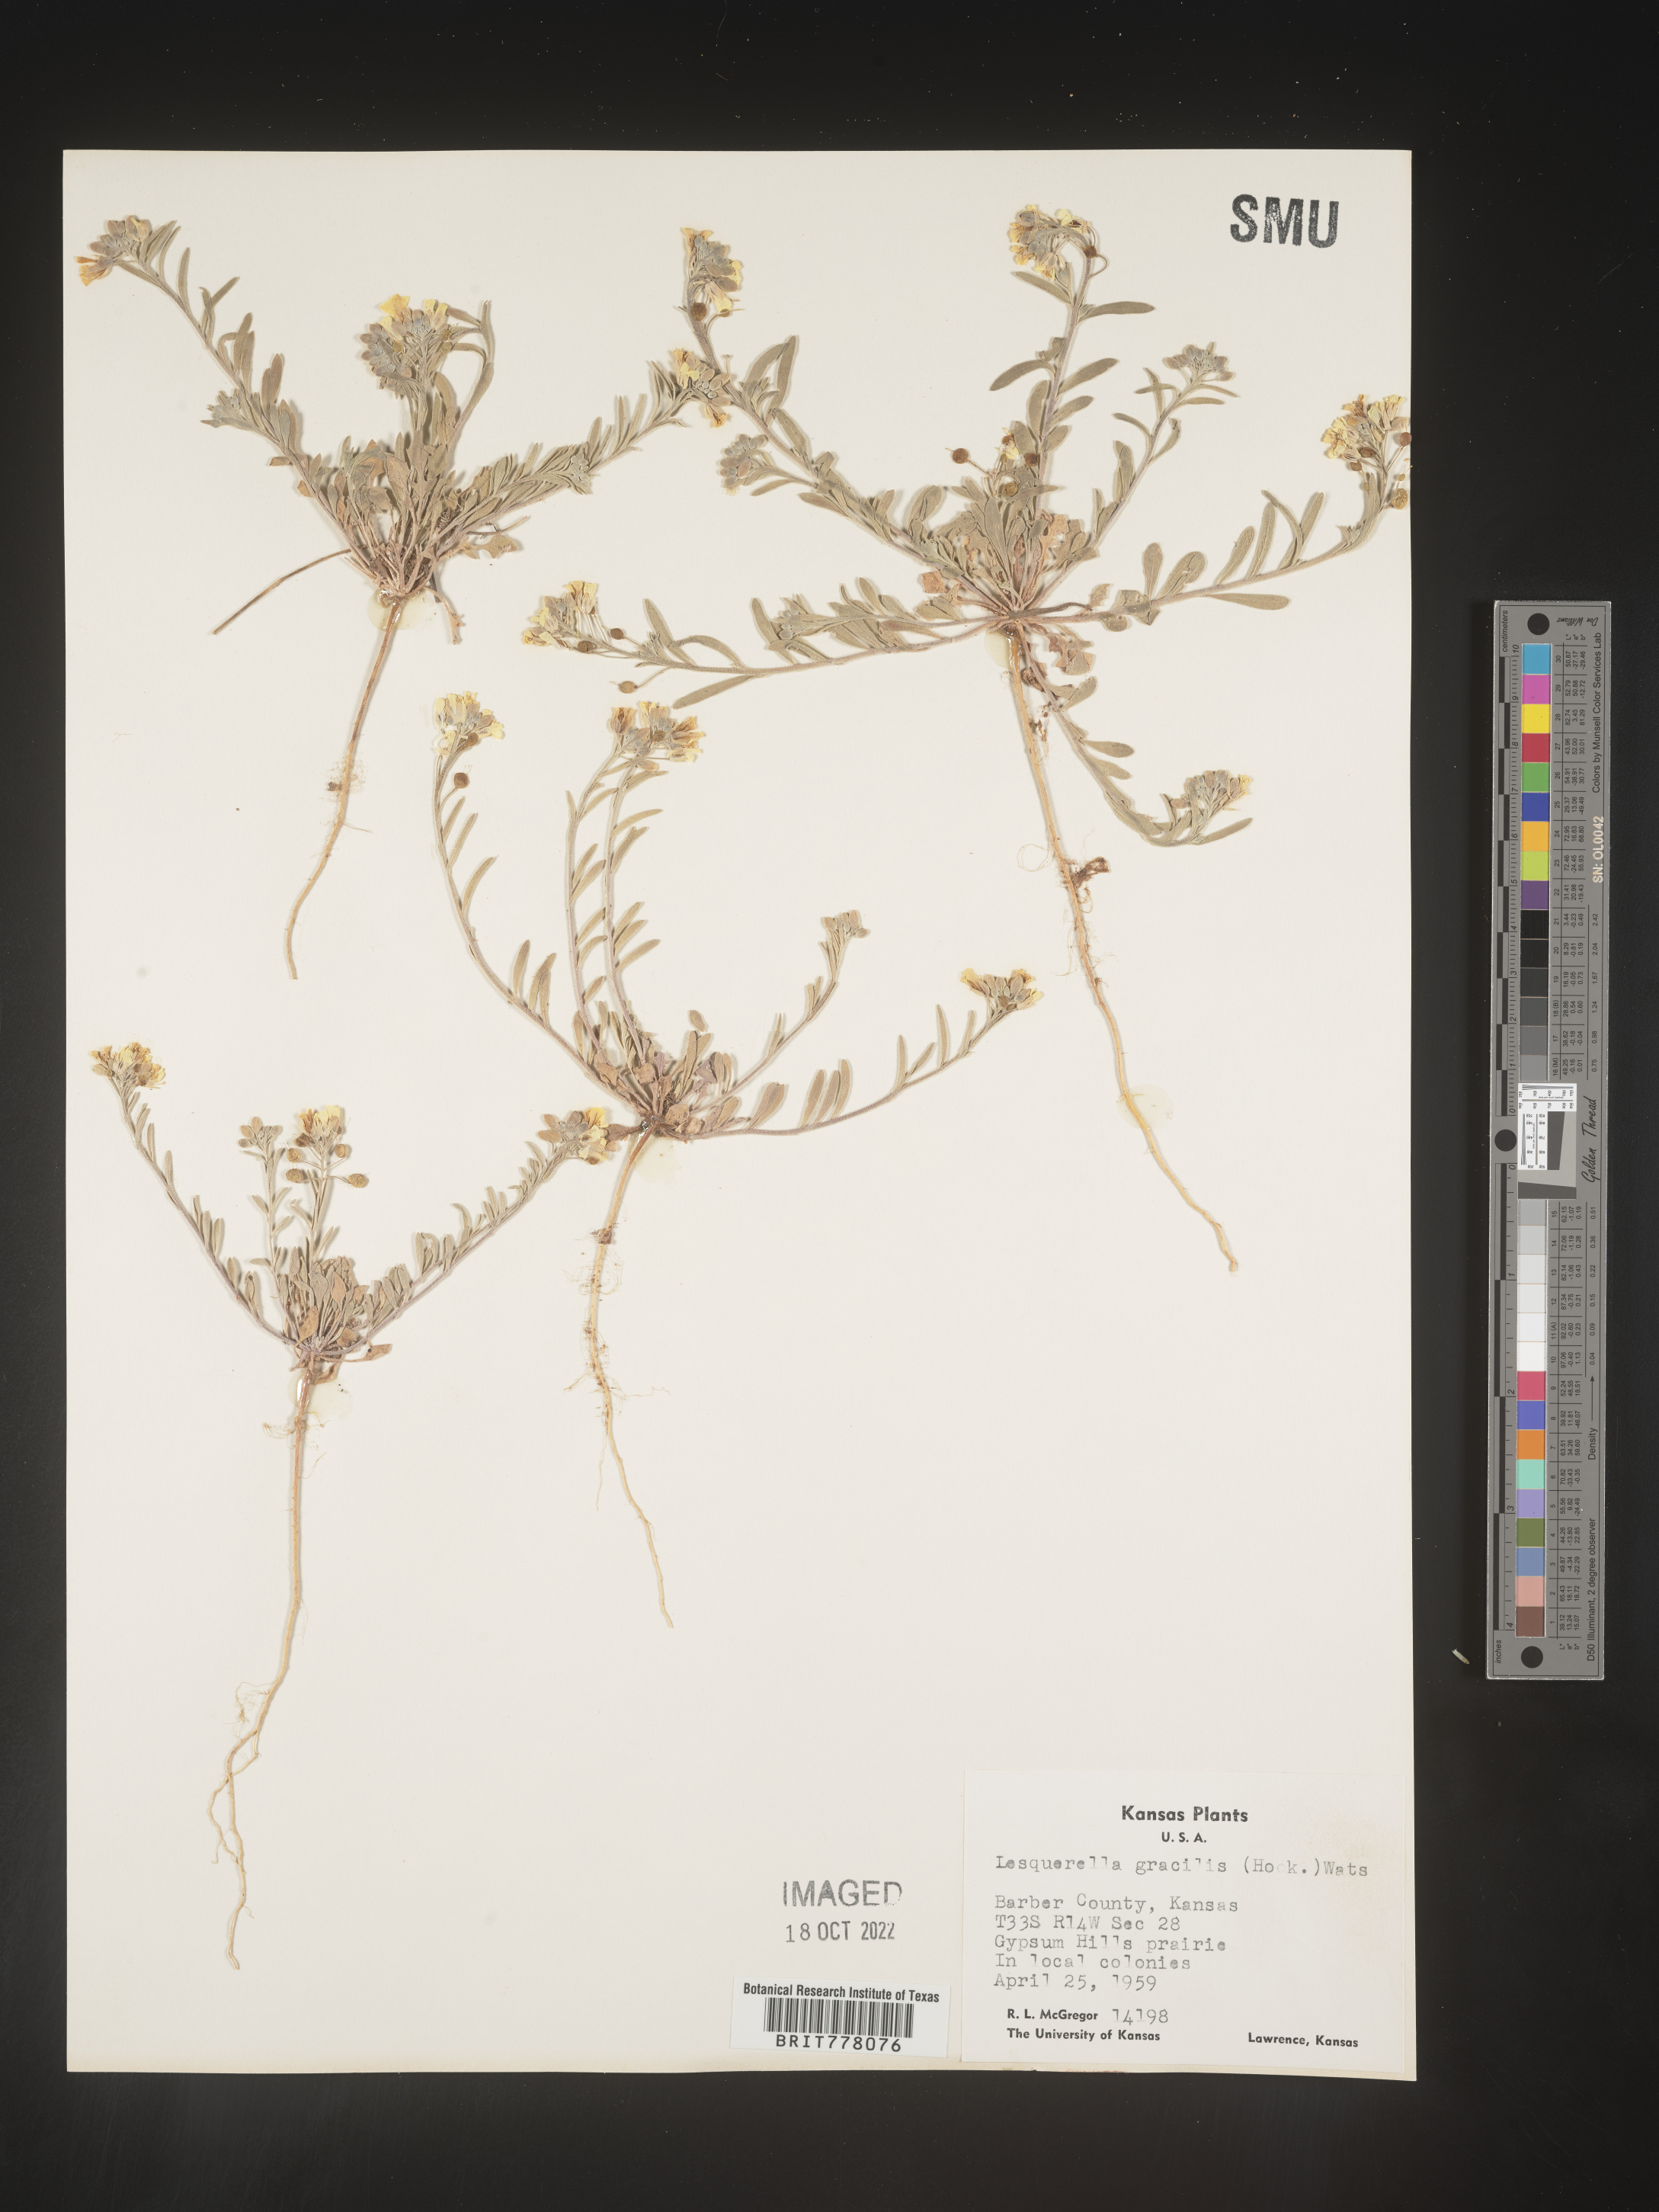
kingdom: Chromista
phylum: Cercozoa
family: Psammonobiotidae
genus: Lesquerella
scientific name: Lesquerella
